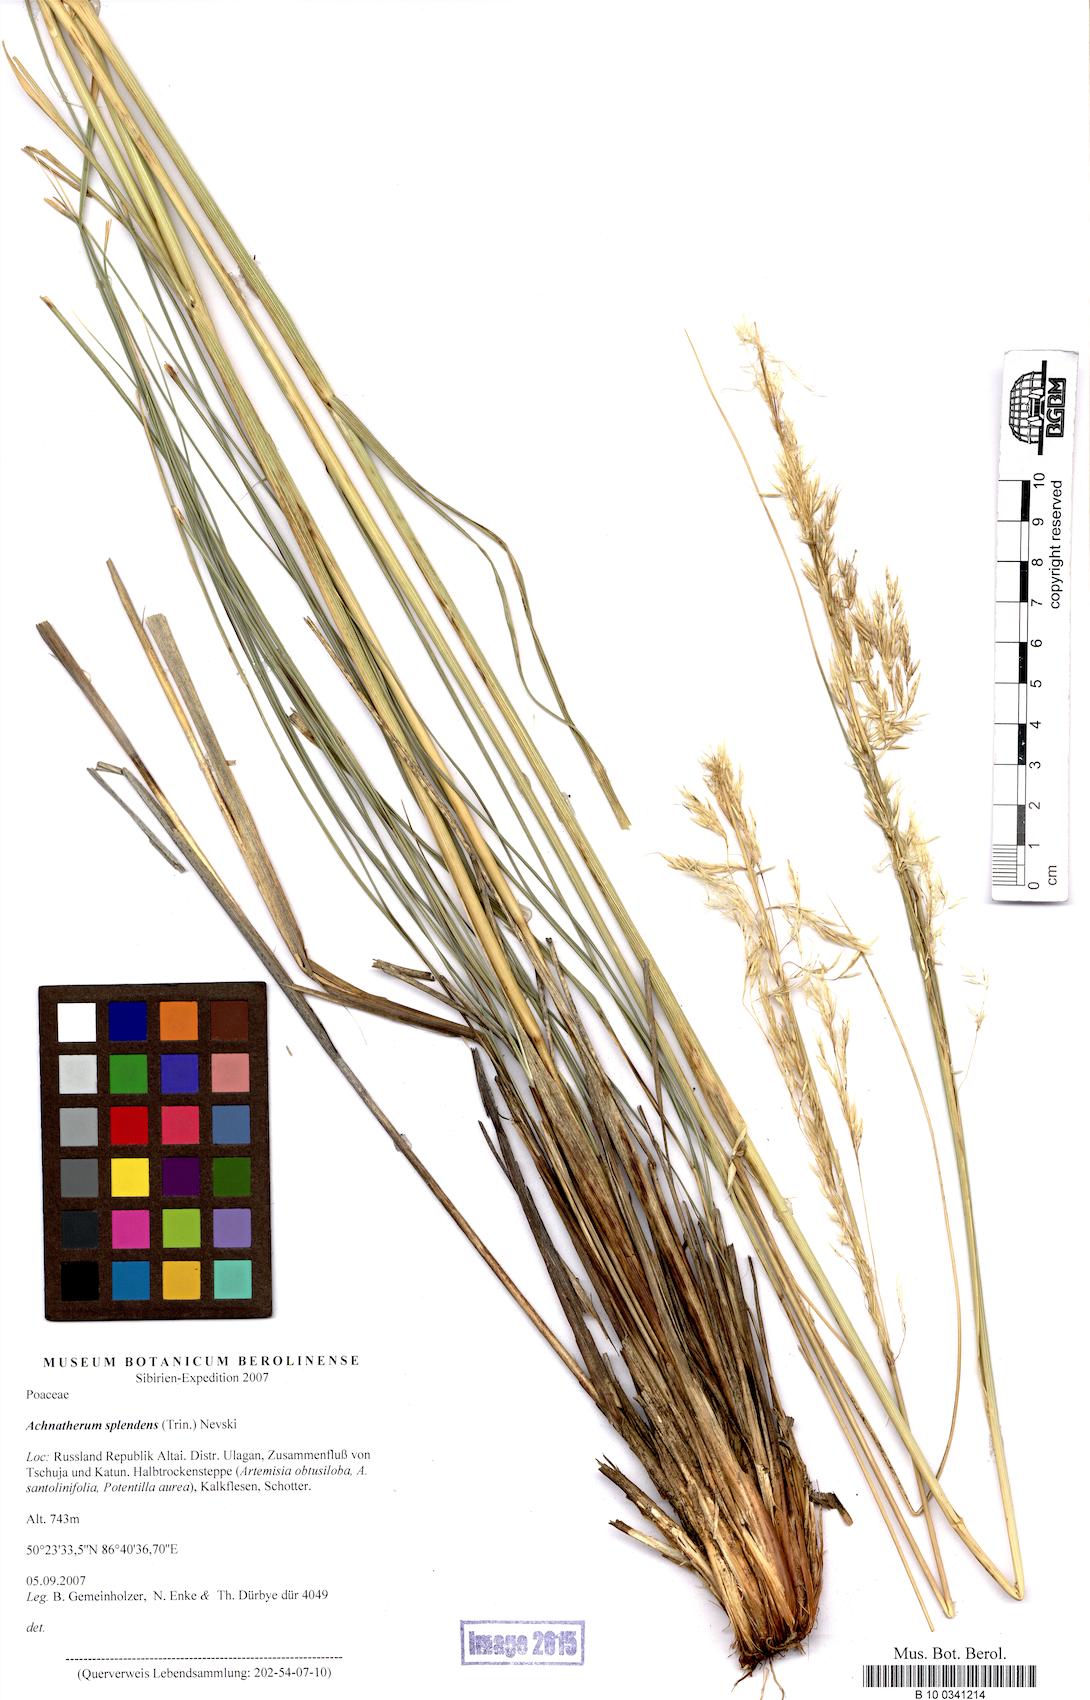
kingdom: Plantae
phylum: Tracheophyta
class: Liliopsida
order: Poales
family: Poaceae
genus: Neotrinia
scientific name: Neotrinia splendens
